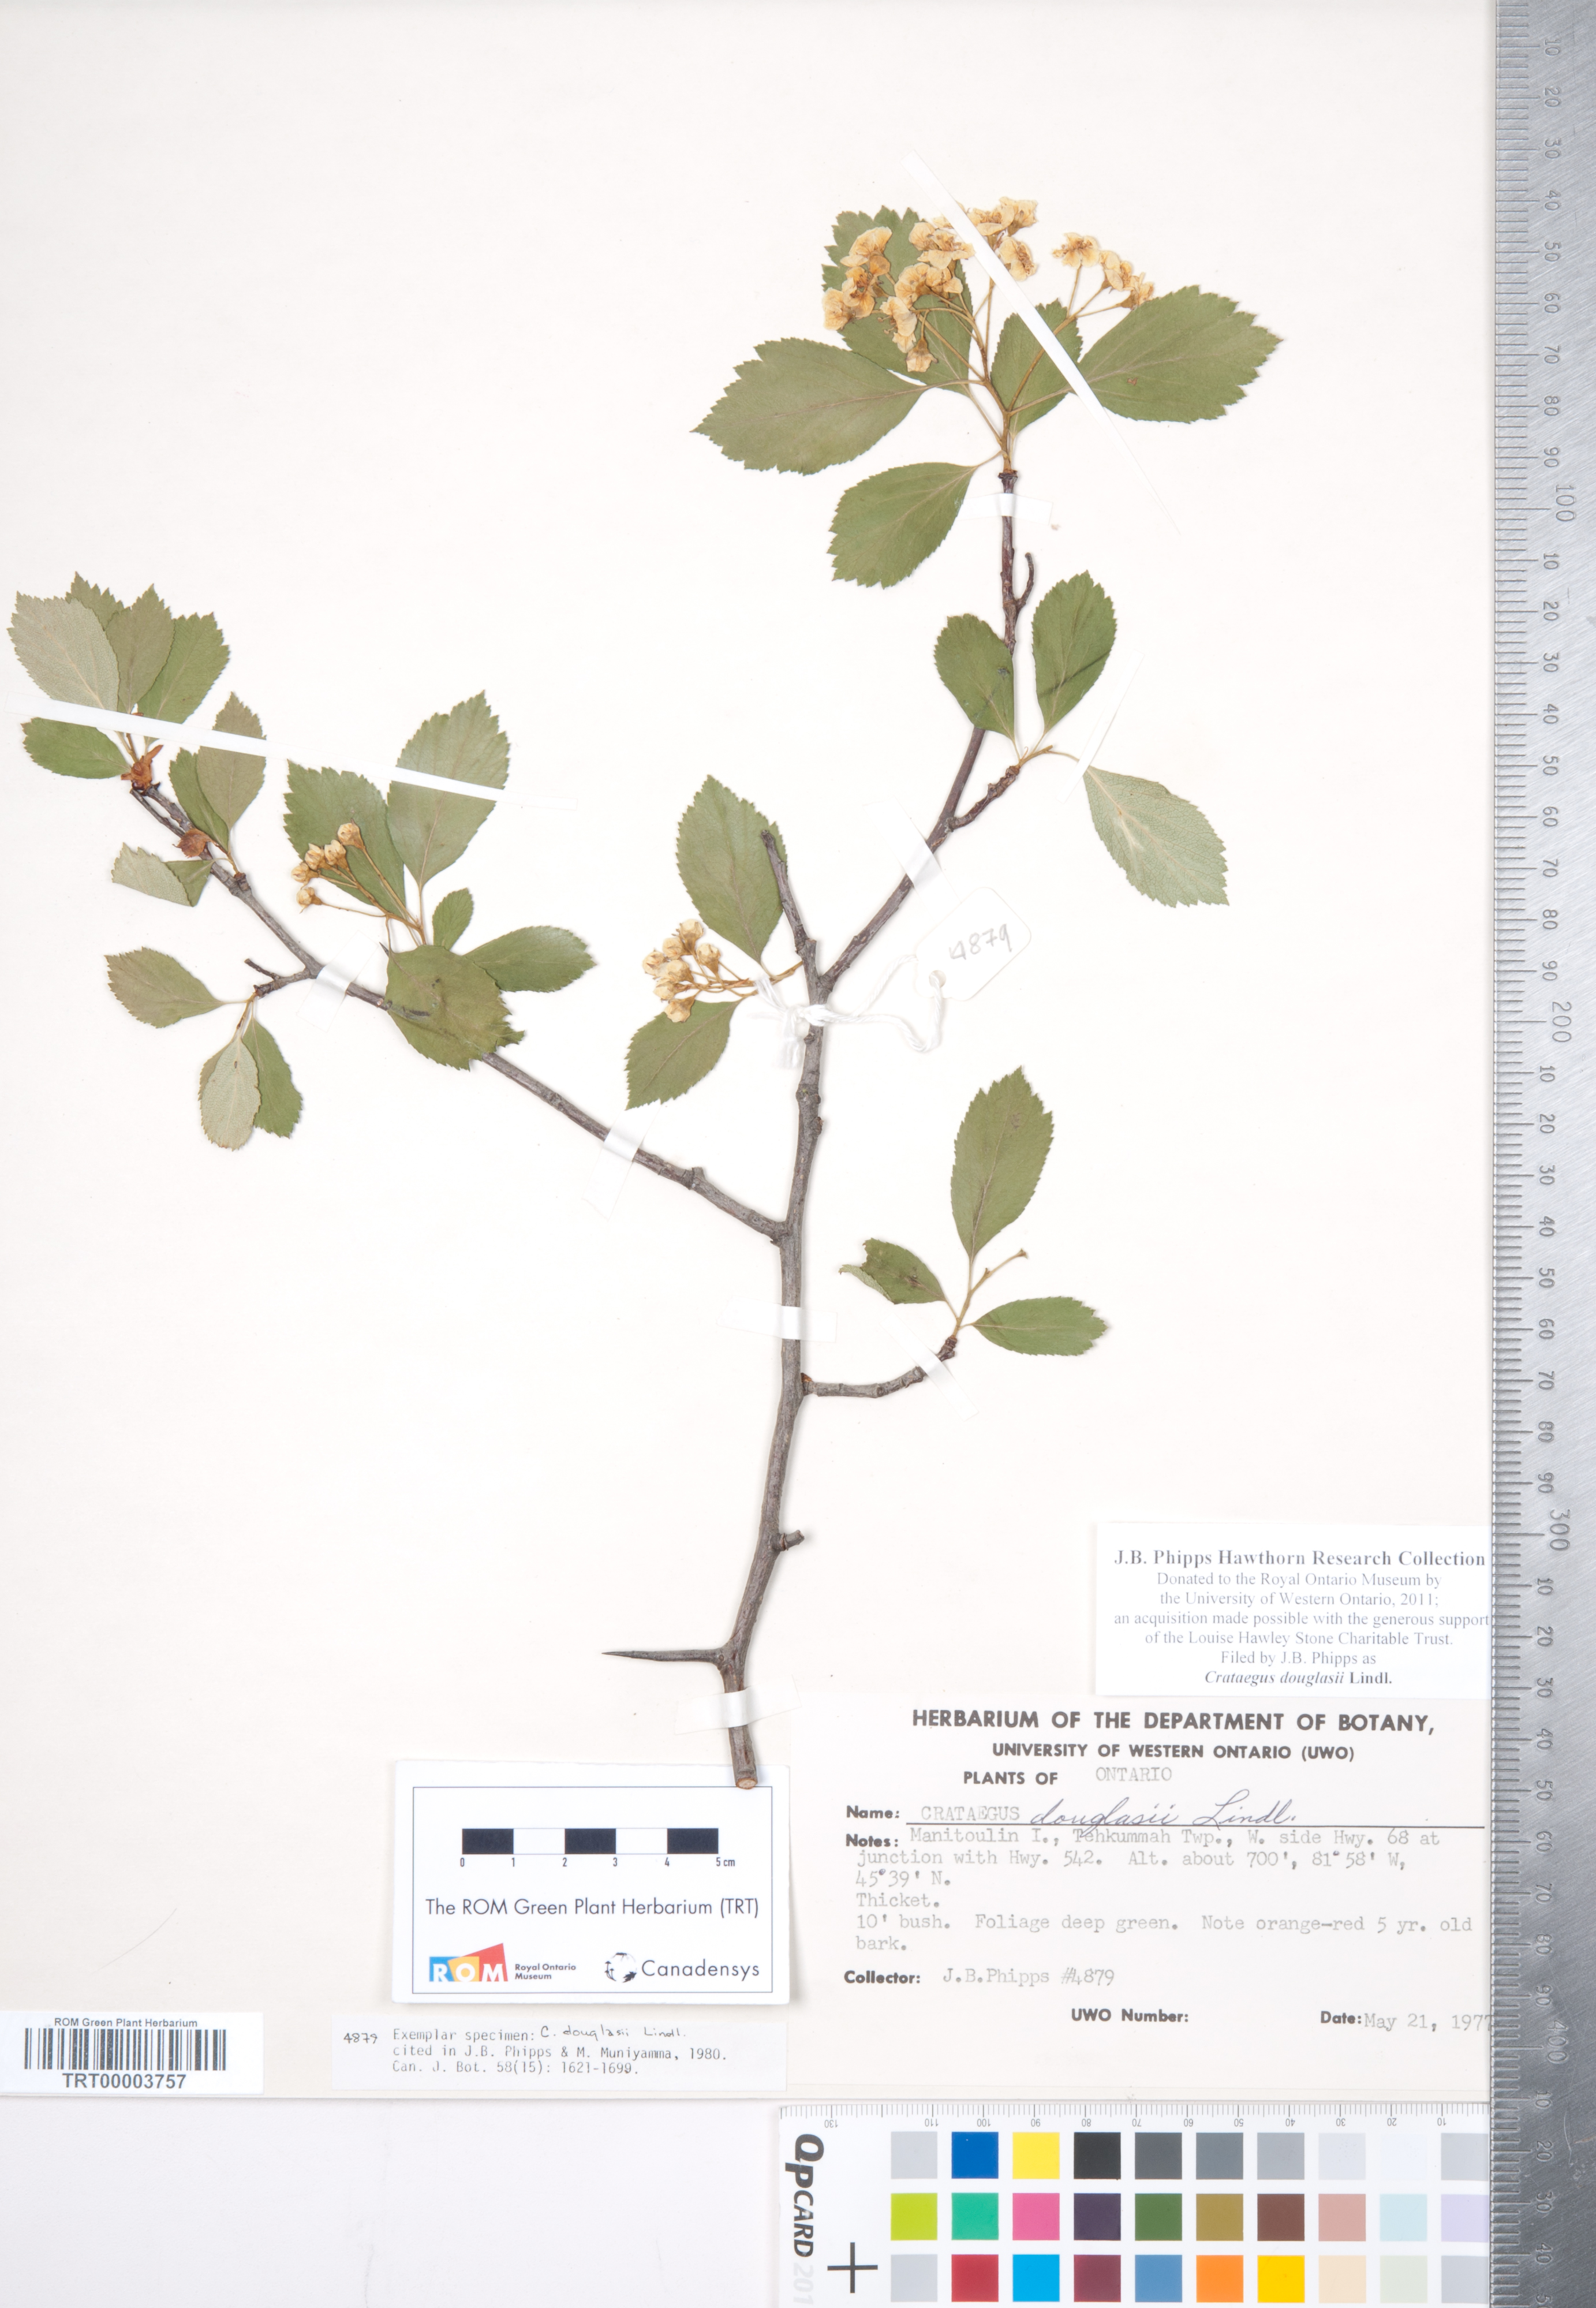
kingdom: Plantae
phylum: Tracheophyta
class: Magnoliopsida
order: Rosales
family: Rosaceae
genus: Crataegus
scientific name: Crataegus douglasii
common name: Black hawthorn
